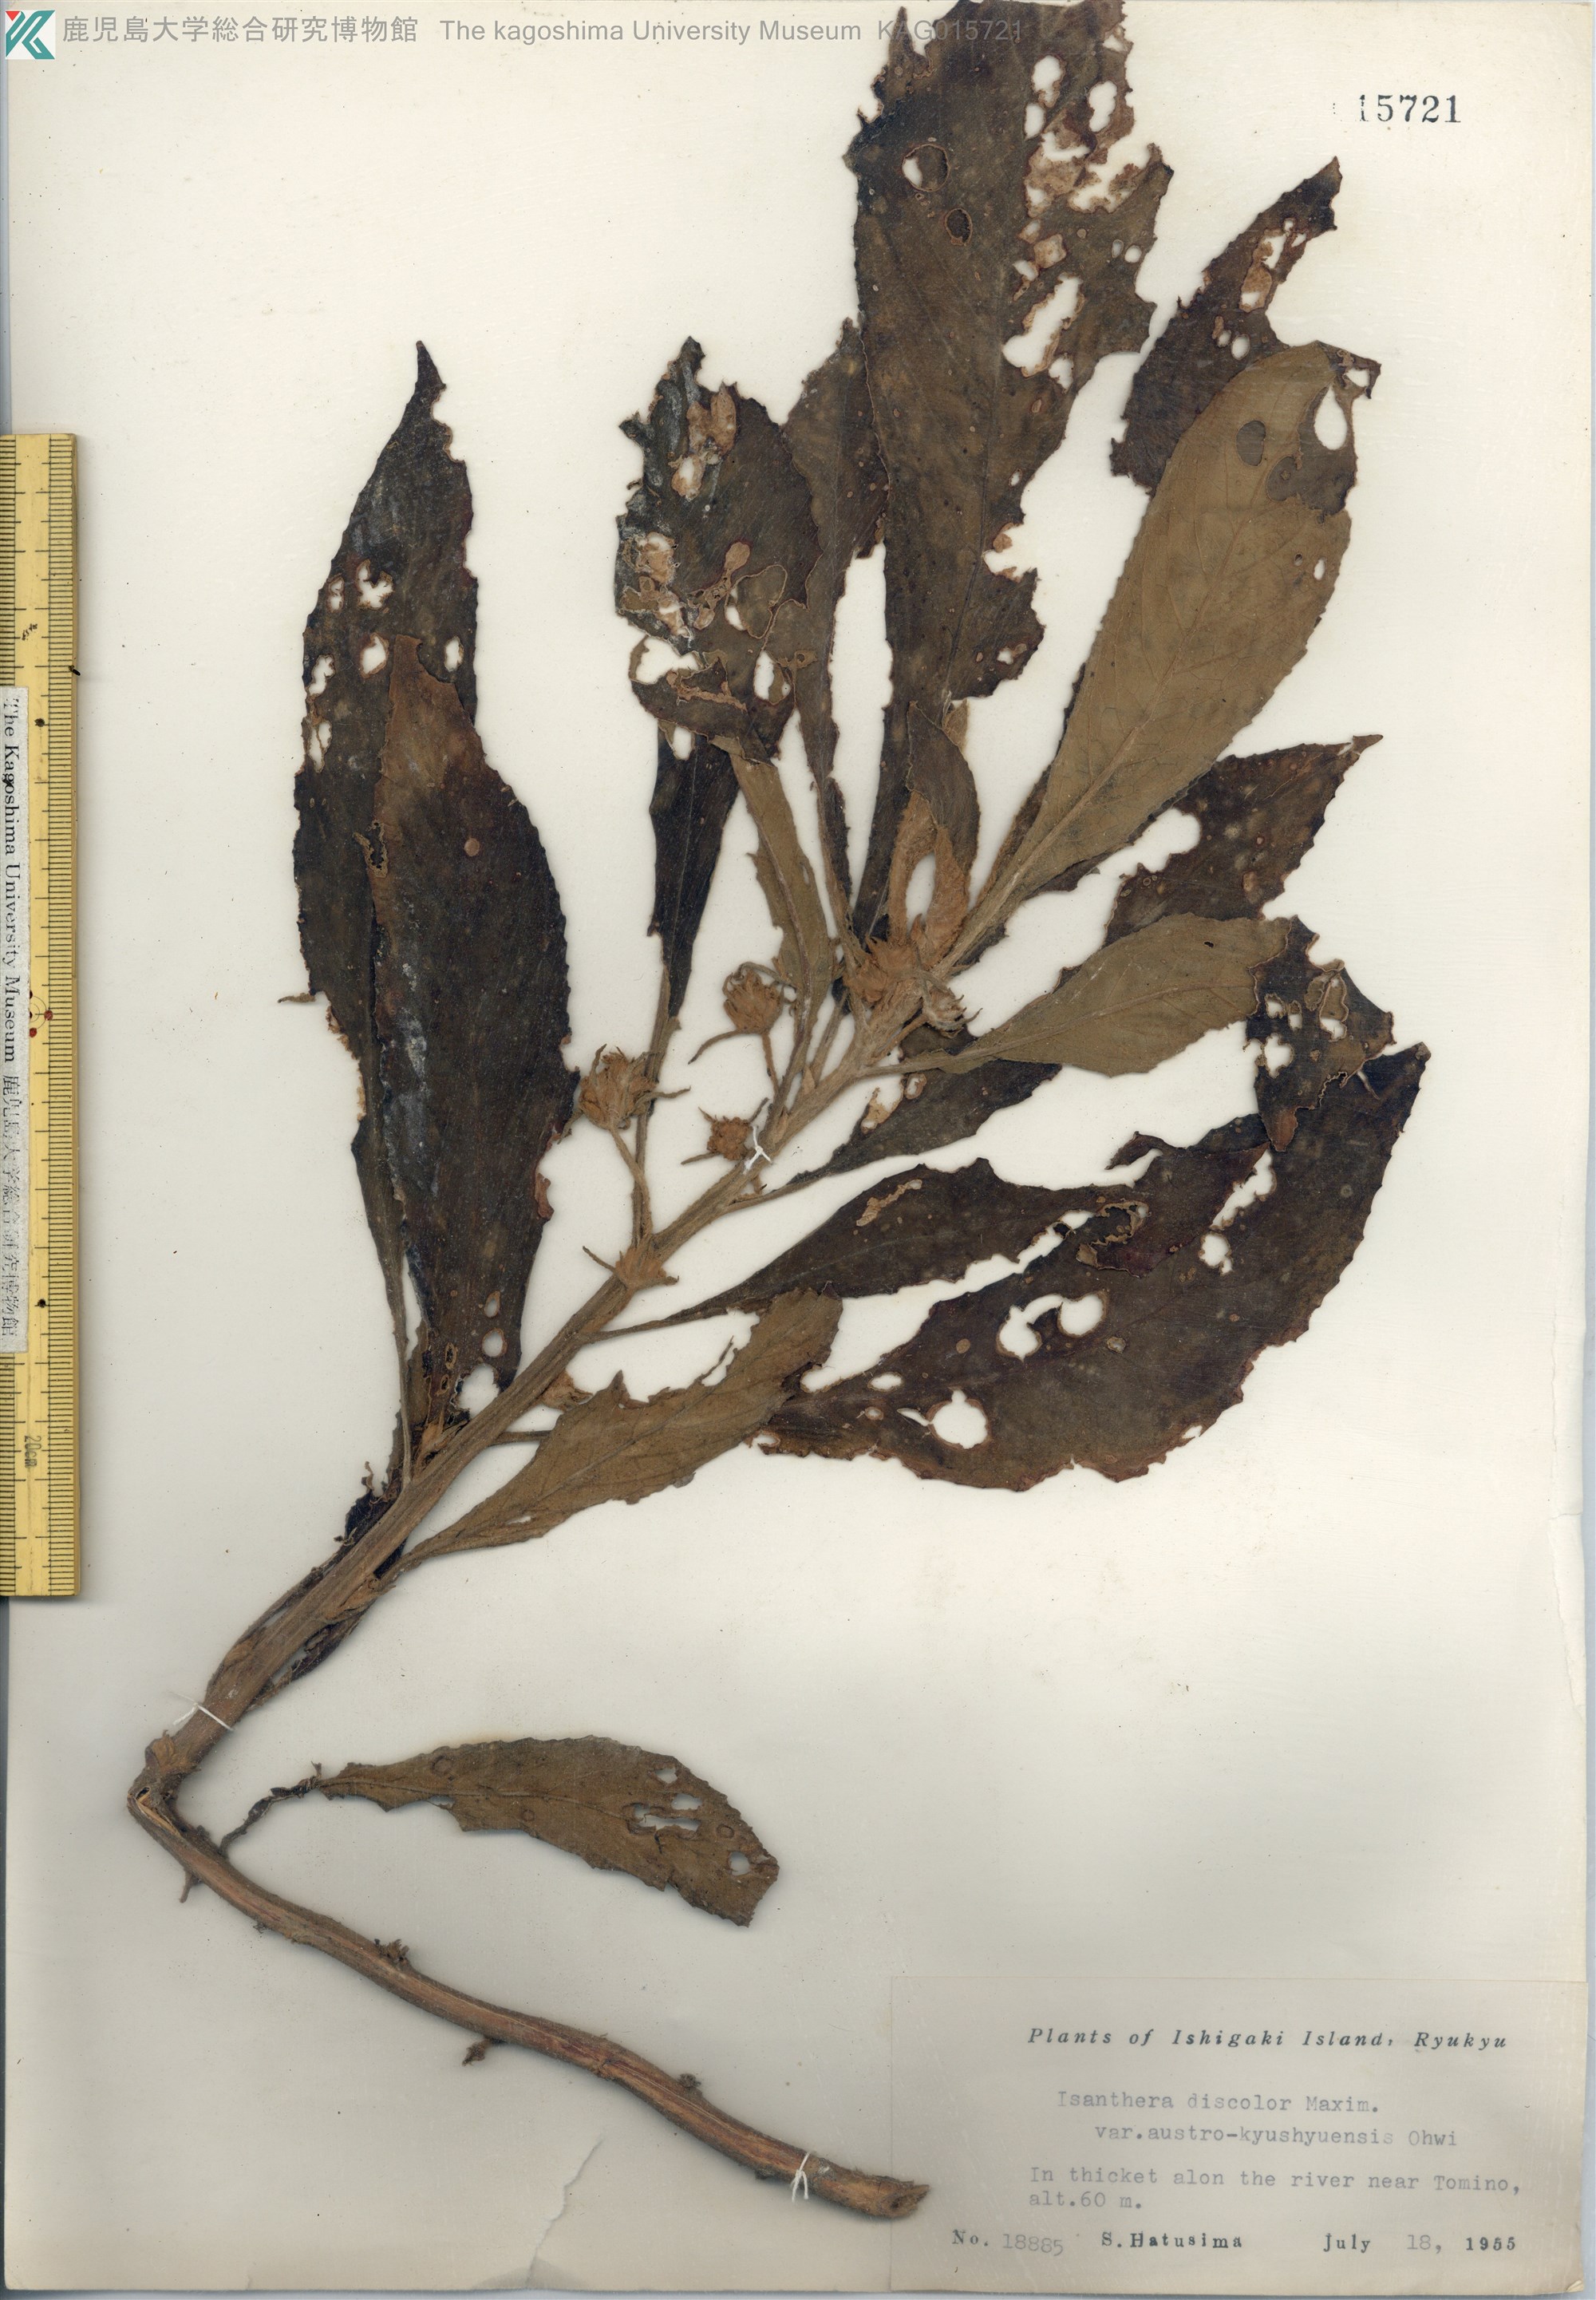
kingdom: Plantae
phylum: Tracheophyta
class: Magnoliopsida
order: Lamiales
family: Gesneriaceae
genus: Rhynchotechum
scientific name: Rhynchotechum discolor
